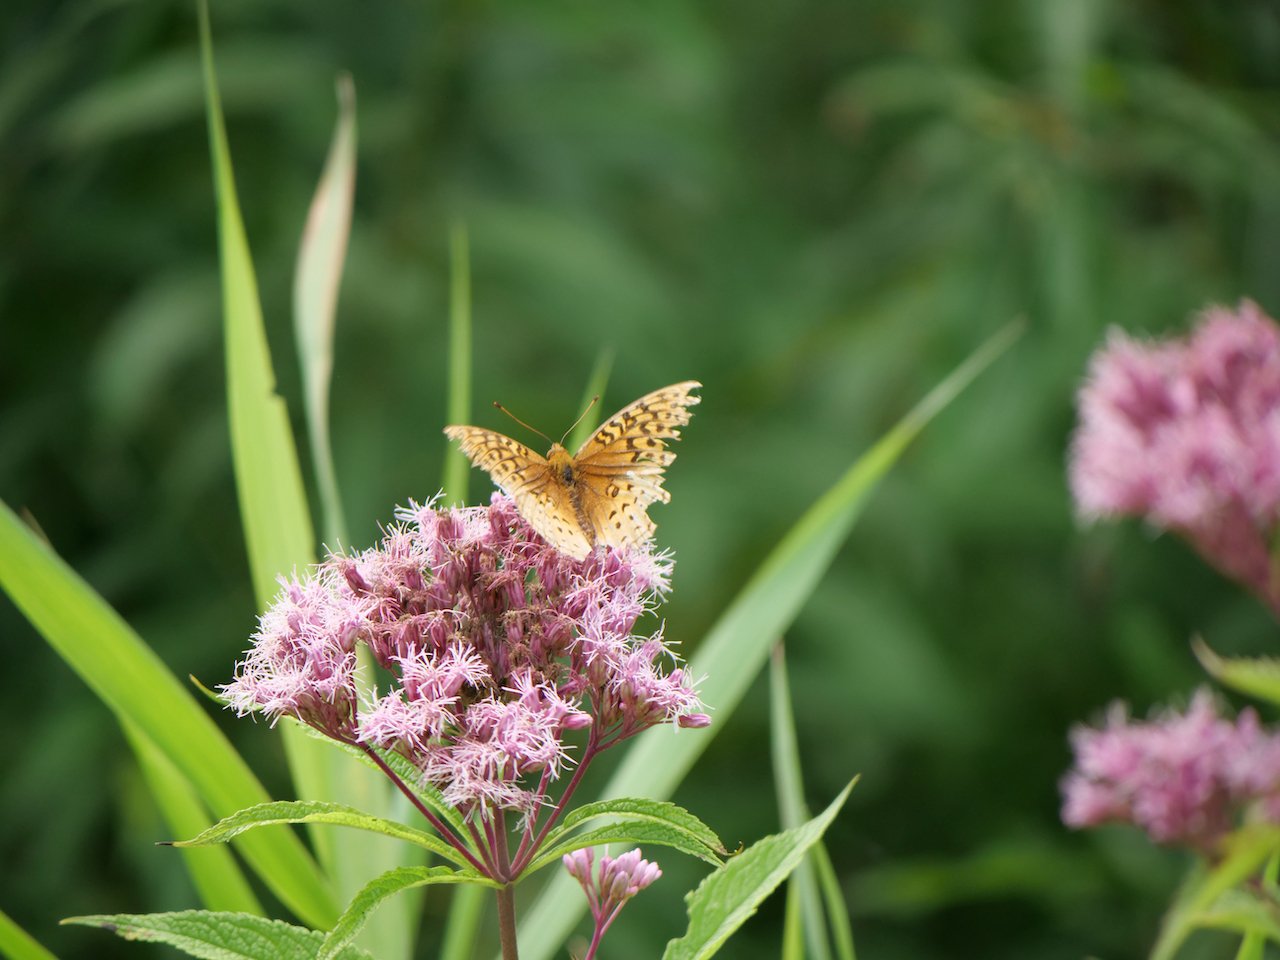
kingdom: Animalia
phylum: Arthropoda
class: Insecta
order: Lepidoptera
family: Nymphalidae
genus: Speyeria
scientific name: Speyeria
